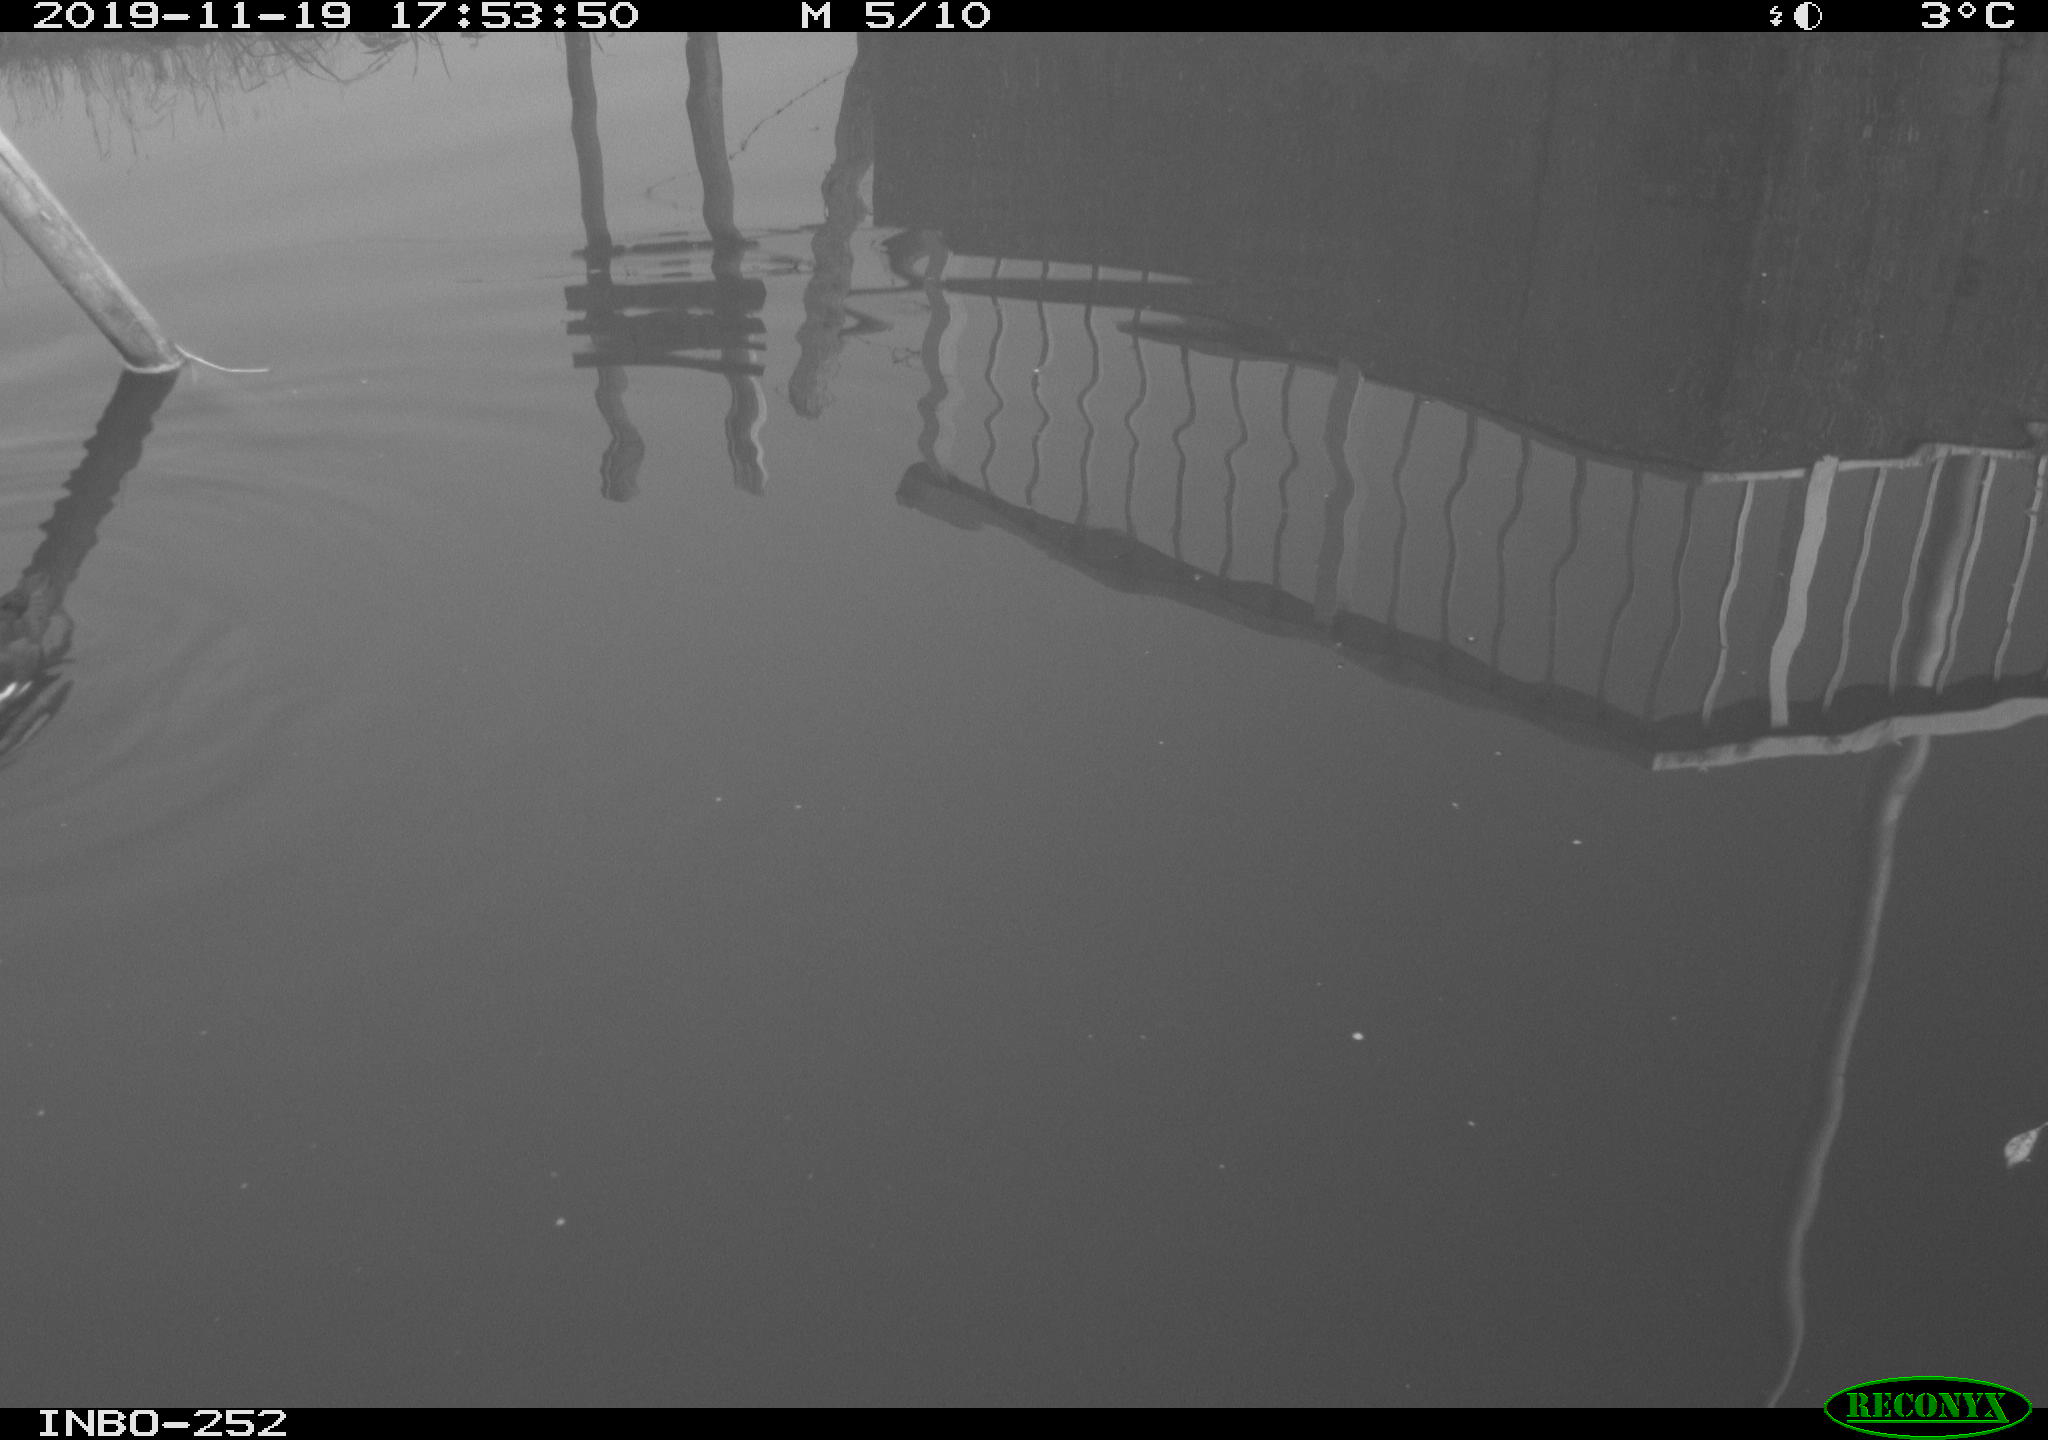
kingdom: Animalia
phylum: Chordata
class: Aves
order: Gruiformes
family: Rallidae
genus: Gallinula
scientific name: Gallinula chloropus
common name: Common moorhen
